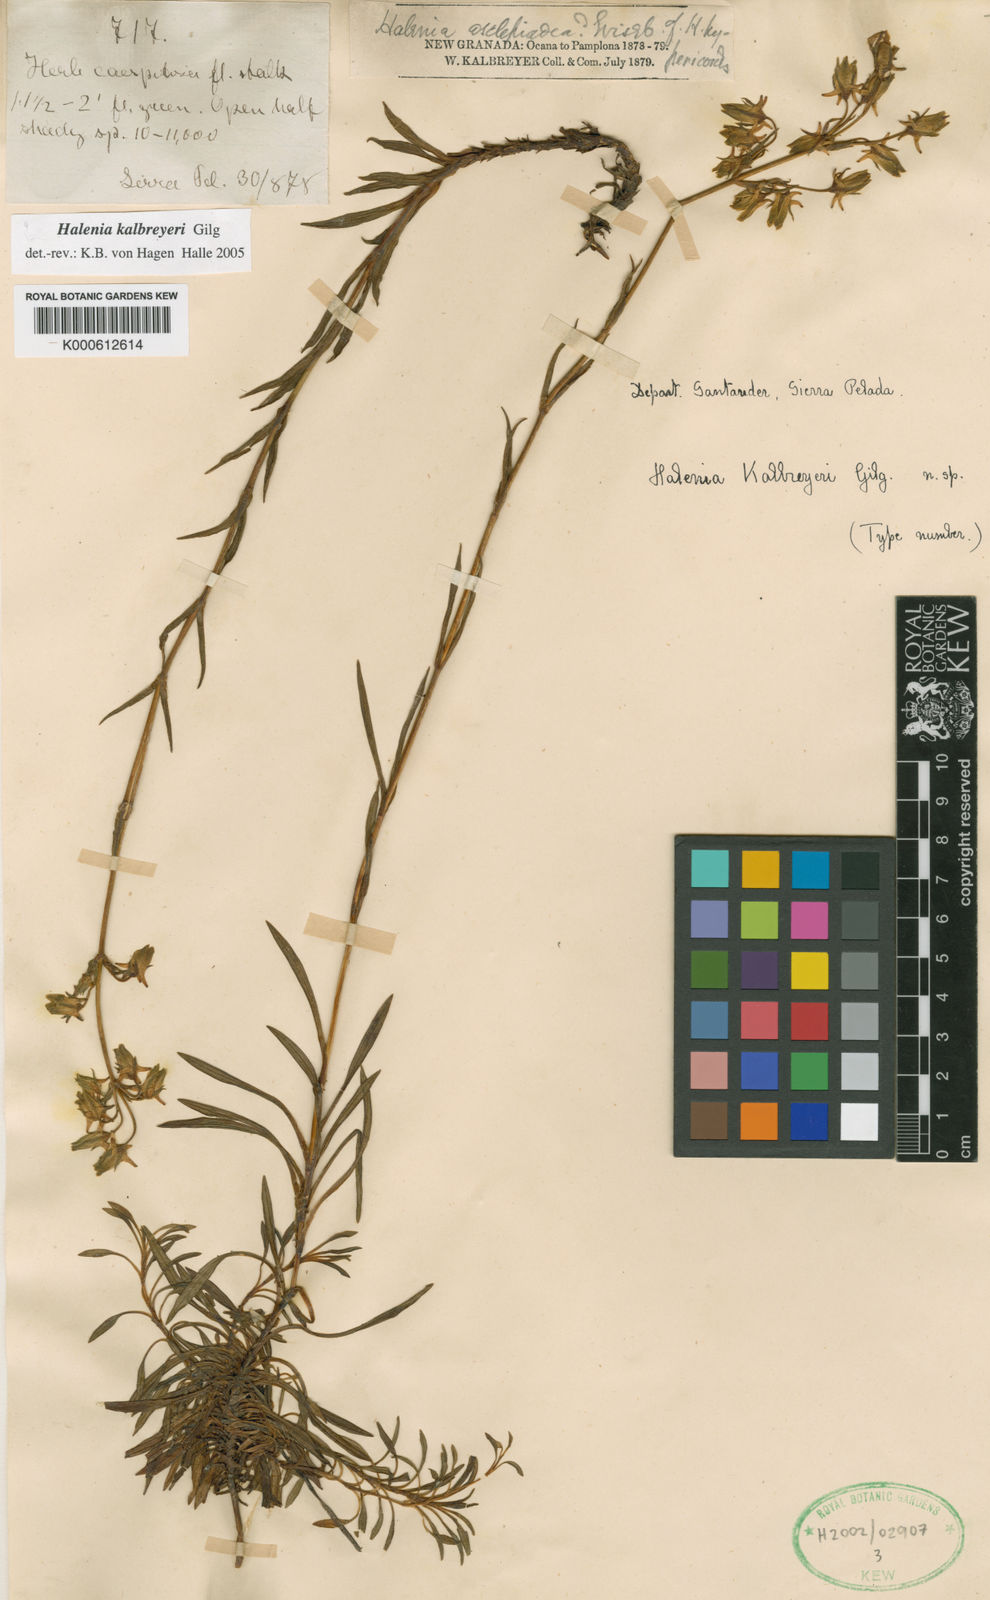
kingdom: Plantae
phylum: Tracheophyta
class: Magnoliopsida
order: Gentianales
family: Gentianaceae
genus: Halenia
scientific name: Halenia kalbreyeri
